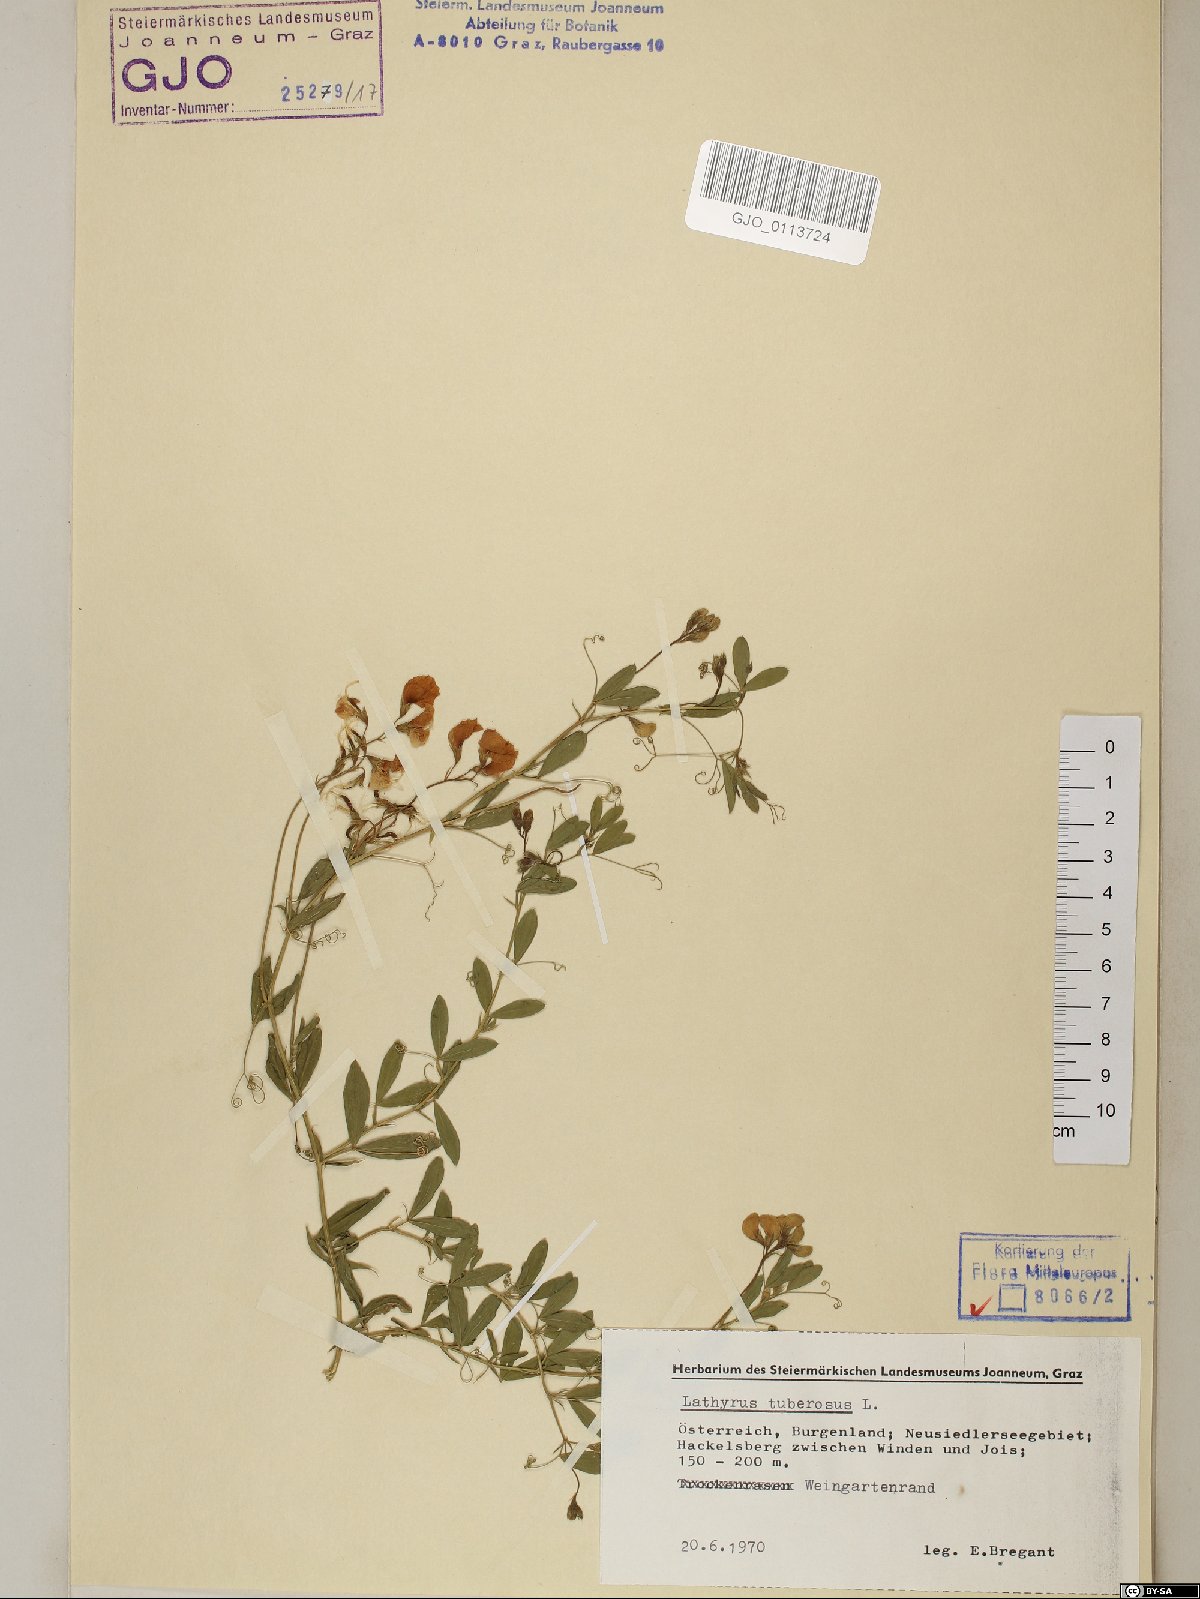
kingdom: Plantae
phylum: Tracheophyta
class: Magnoliopsida
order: Fabales
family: Fabaceae
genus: Lathyrus
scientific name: Lathyrus tuberosus
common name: Tuberous pea
